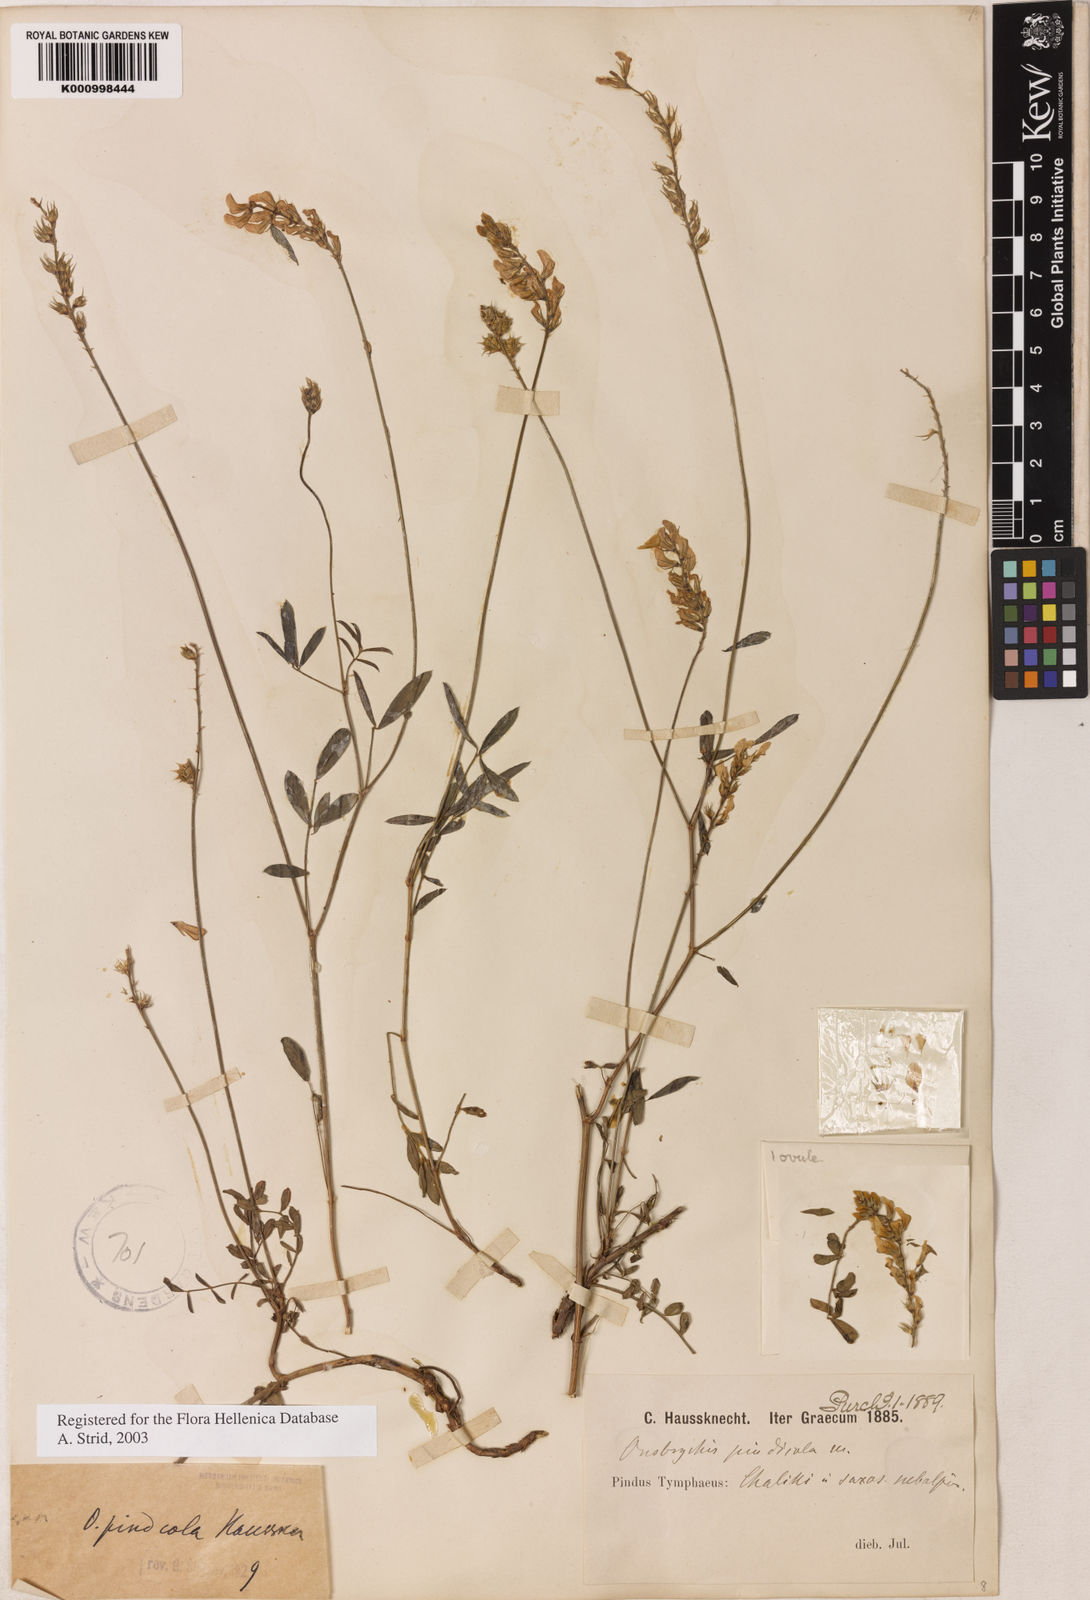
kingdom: Plantae
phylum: Tracheophyta
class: Magnoliopsida
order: Fabales
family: Fabaceae
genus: Onobrychis
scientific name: Onobrychis pindicola
